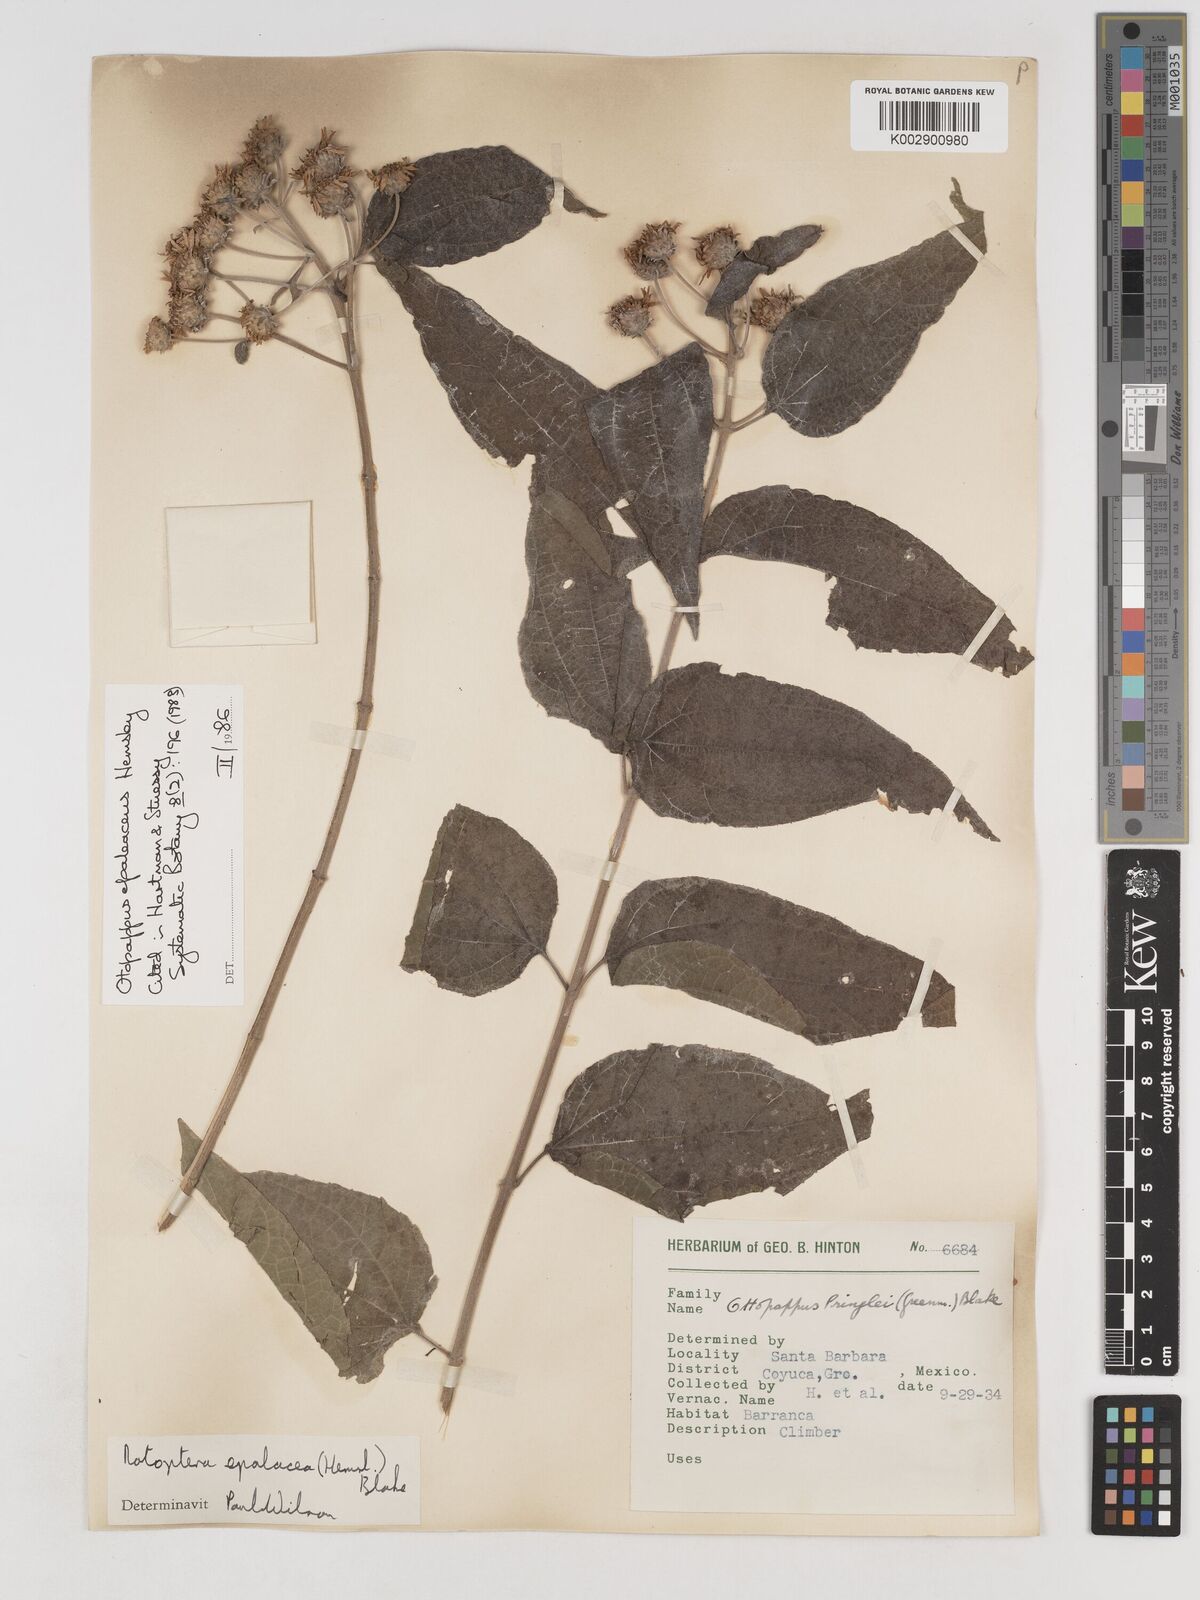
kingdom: Plantae
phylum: Tracheophyta
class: Magnoliopsida
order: Asterales
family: Asteraceae
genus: Otopappus
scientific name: Otopappus epaleaceus
